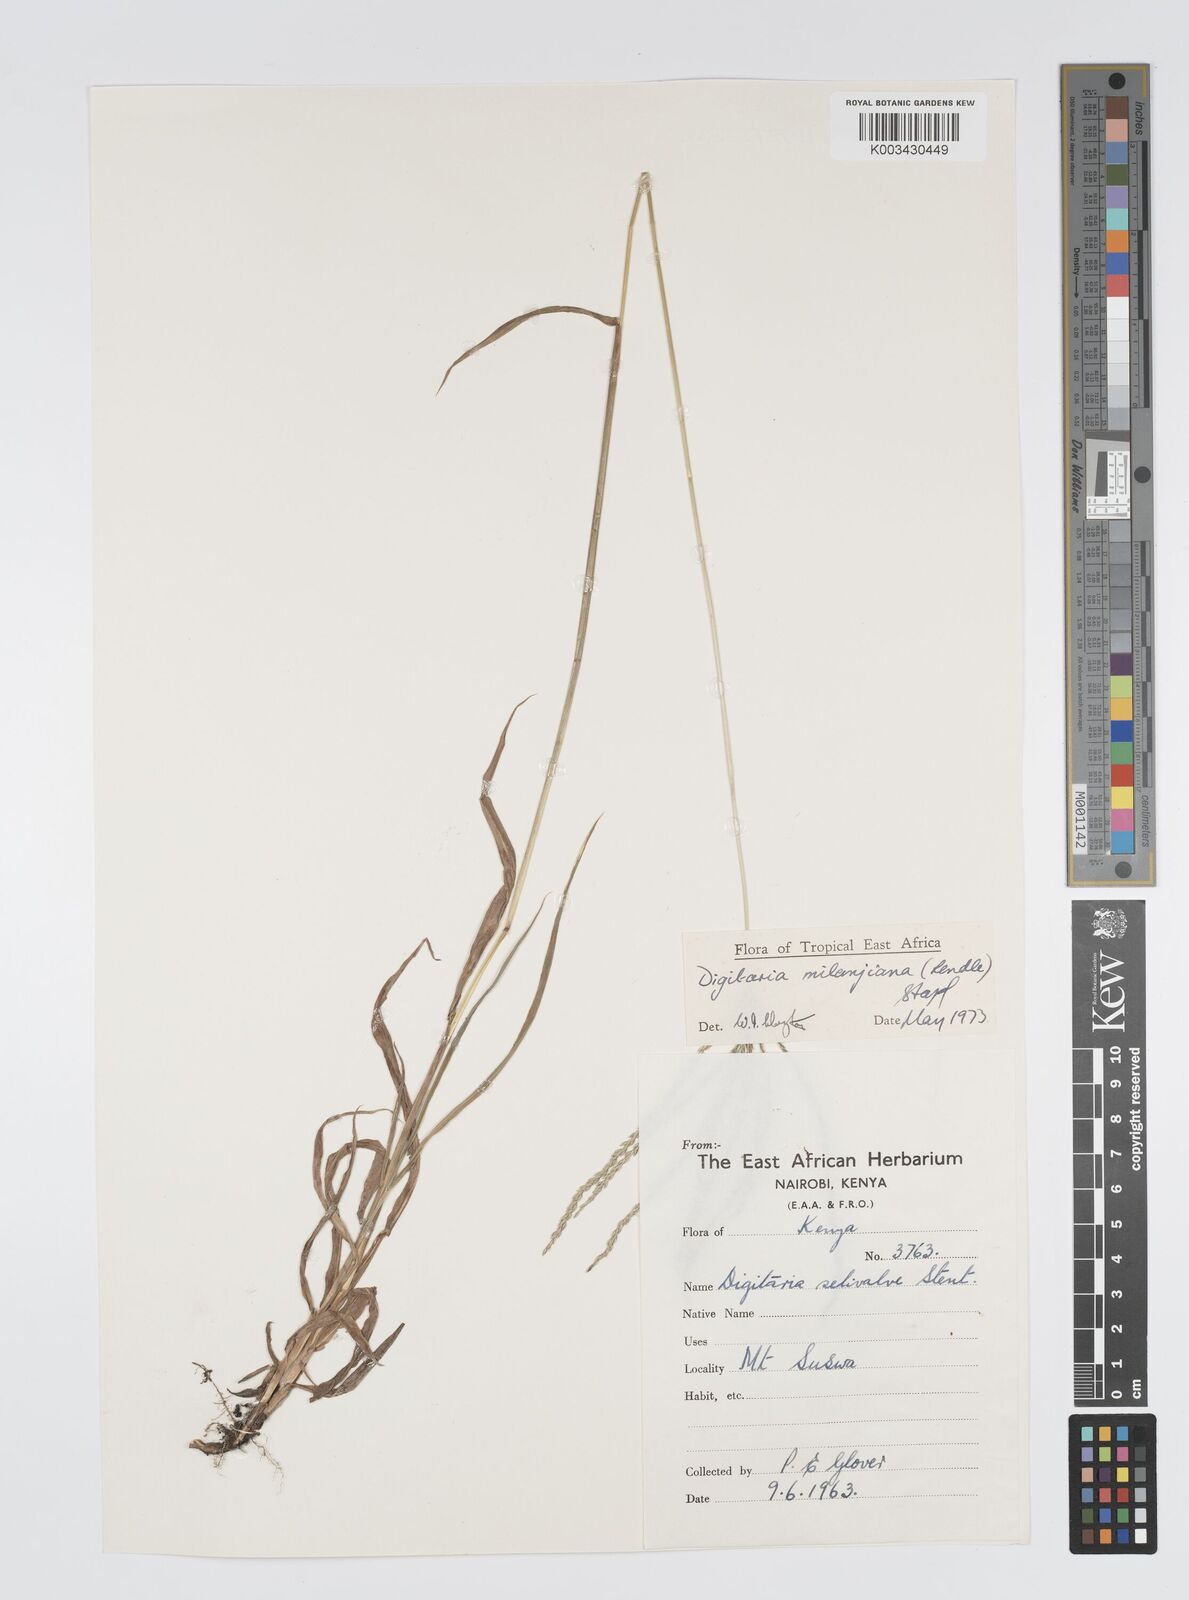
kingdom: Plantae
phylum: Tracheophyta
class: Liliopsida
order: Poales
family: Poaceae
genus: Digitaria
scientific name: Digitaria milanjiana
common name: Madagascar crabgrass
